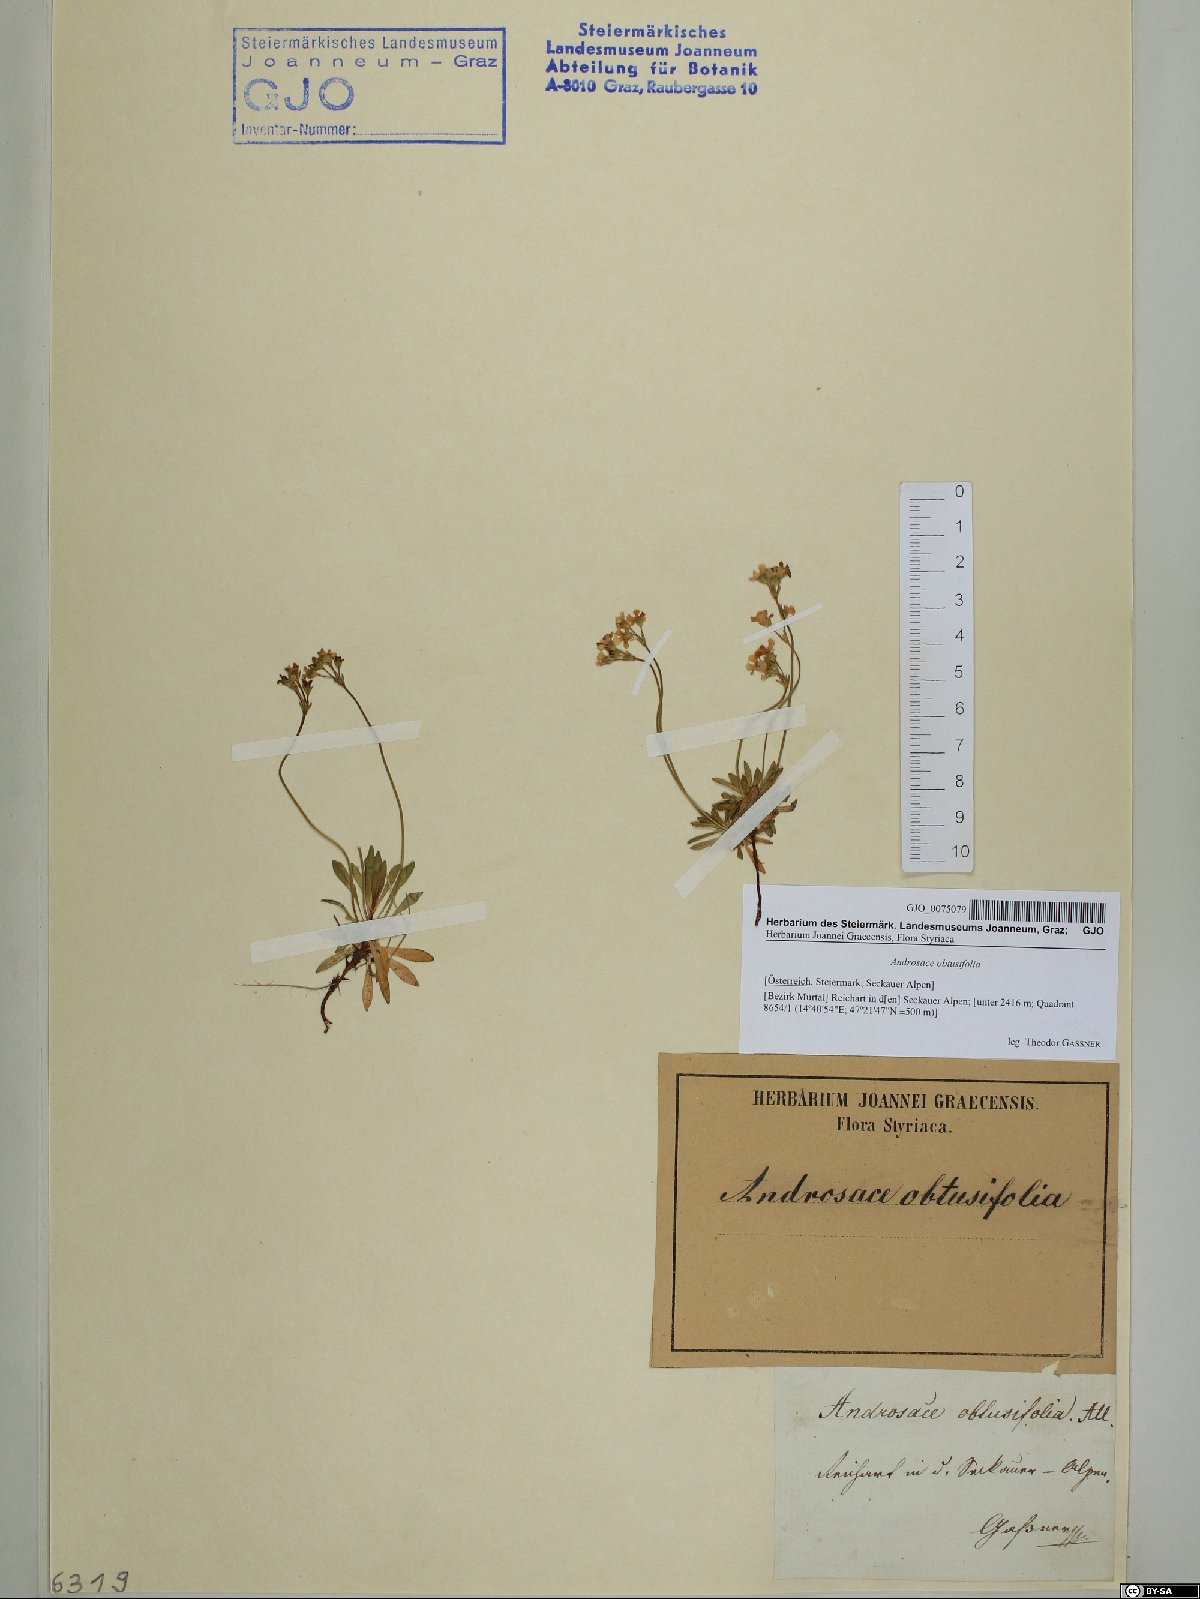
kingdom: Plantae
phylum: Tracheophyta
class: Magnoliopsida
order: Ericales
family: Primulaceae
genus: Androsace
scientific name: Androsace obtusifolia
